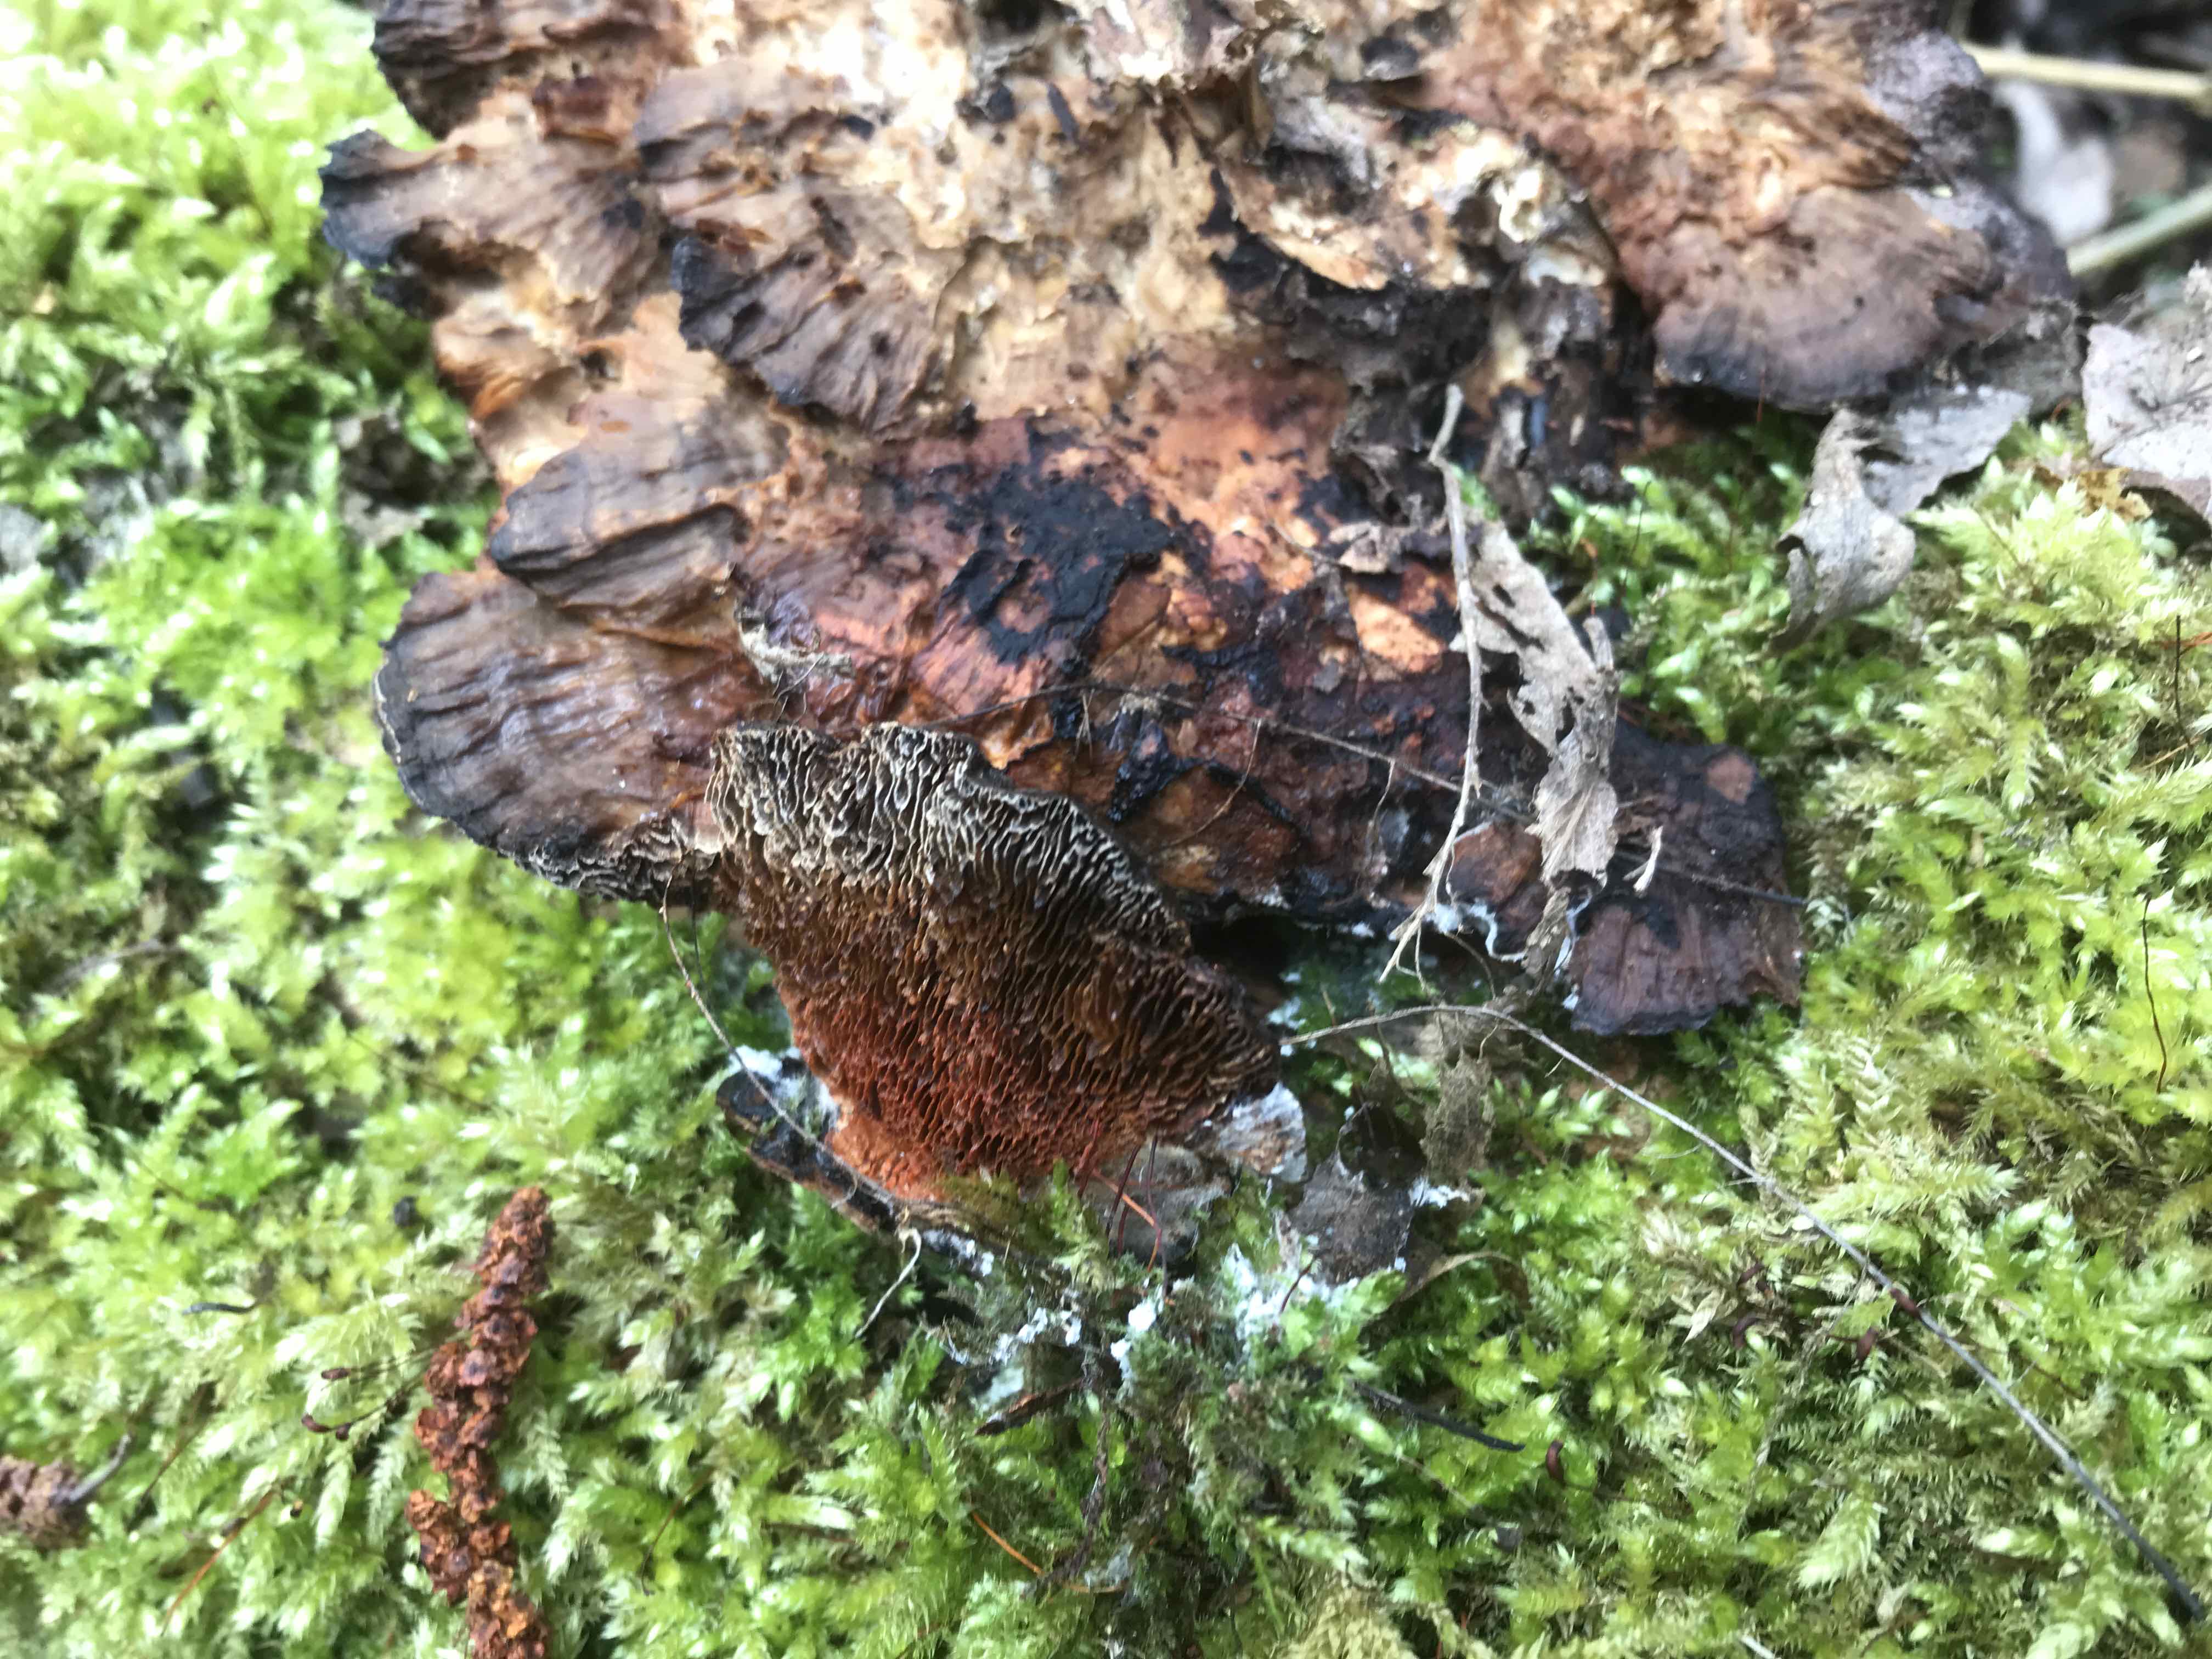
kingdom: Fungi
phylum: Basidiomycota
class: Agaricomycetes
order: Polyporales
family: Polyporaceae
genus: Daedaleopsis
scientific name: Daedaleopsis confragosa
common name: rødmende læderporesvamp
